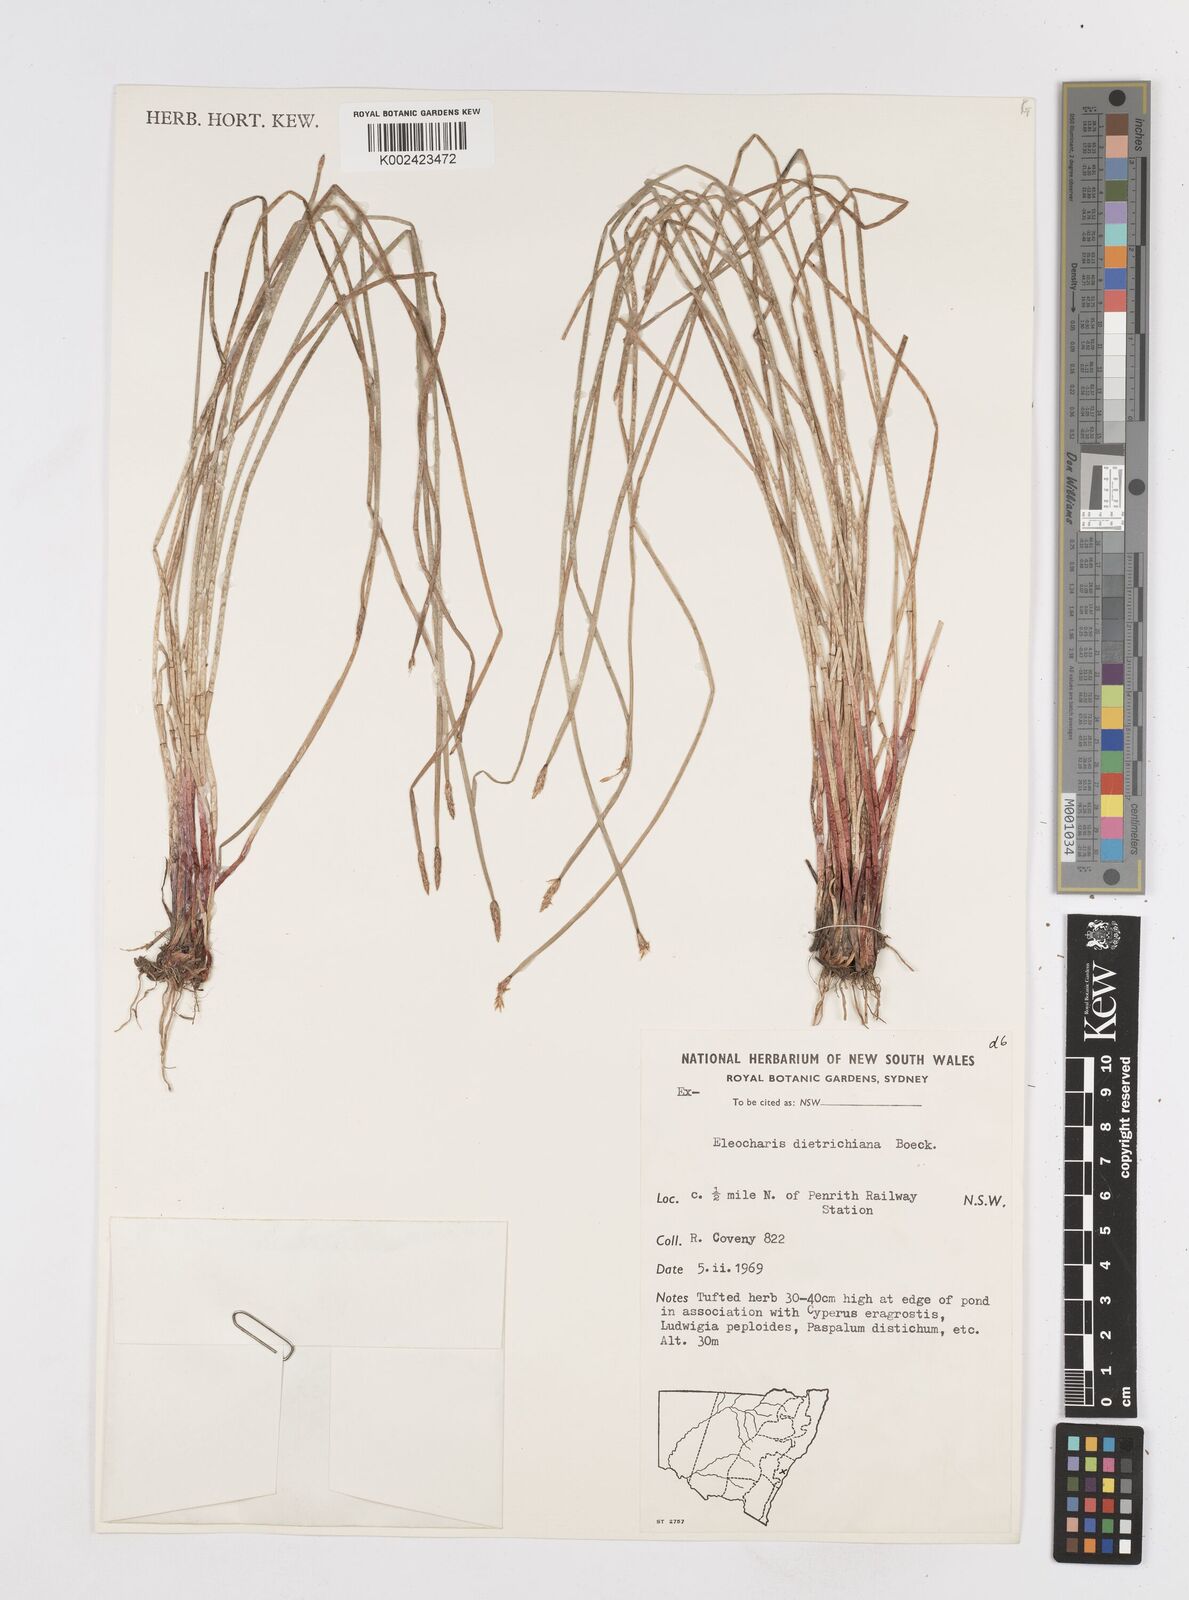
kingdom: Plantae
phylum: Tracheophyta
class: Liliopsida
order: Poales
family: Cyperaceae
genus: Eleocharis
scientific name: Eleocharis dietrichiana
